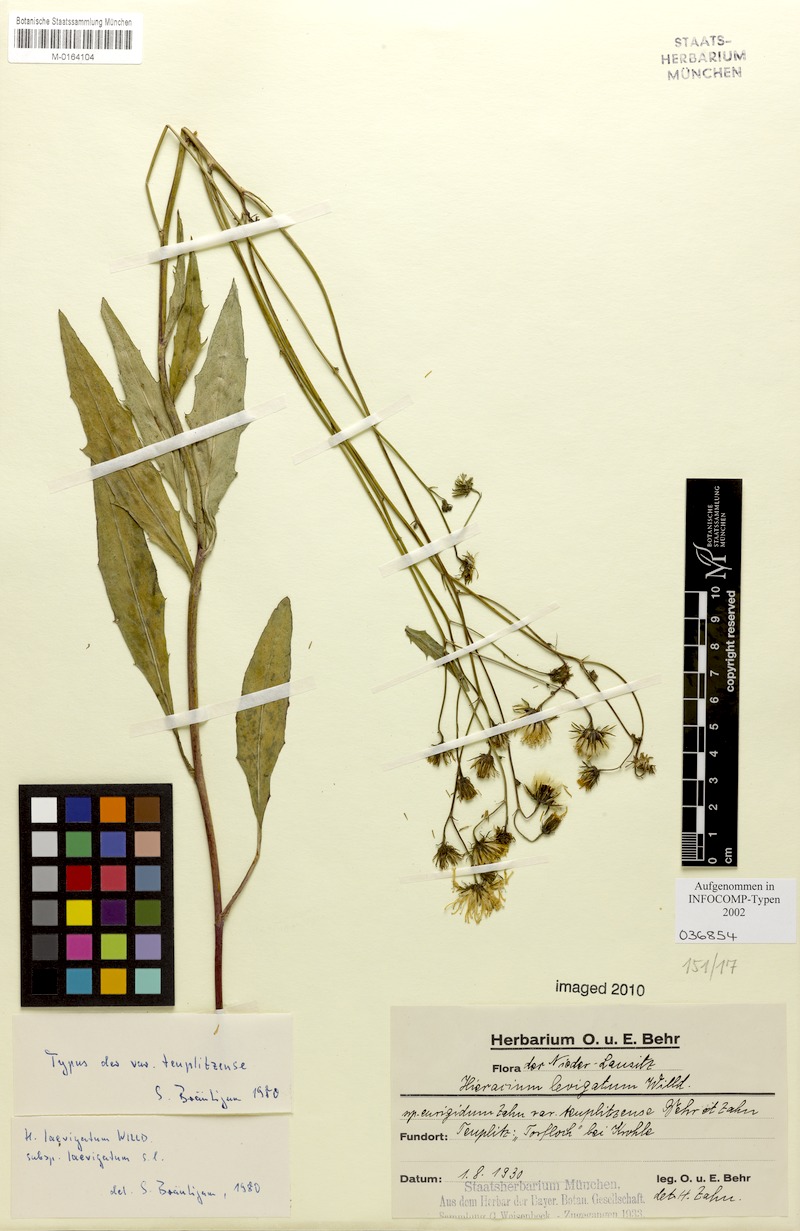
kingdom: Plantae
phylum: Tracheophyta
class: Magnoliopsida
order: Asterales
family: Asteraceae
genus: Hieracium
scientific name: Hieracium laevigatum
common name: Smooth hawkweed
